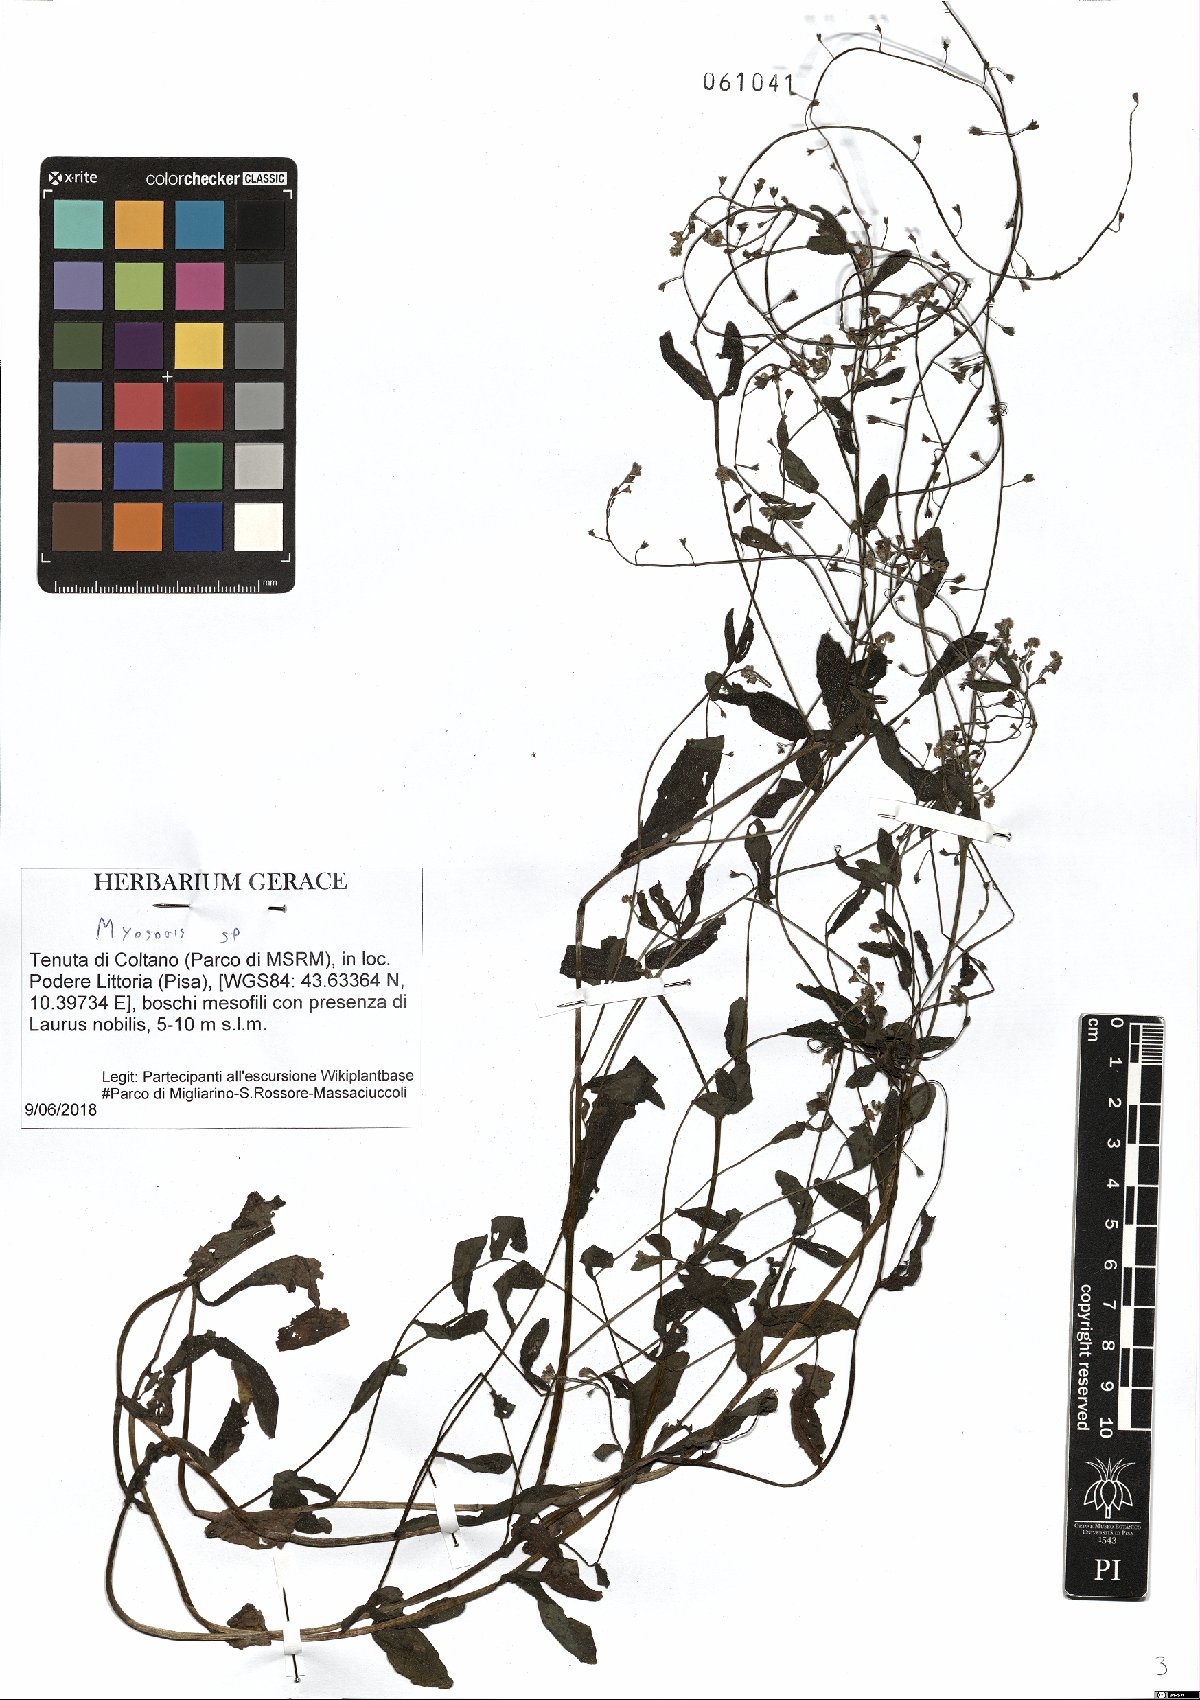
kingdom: Plantae
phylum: Tracheophyta
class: Magnoliopsida
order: Boraginales
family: Boraginaceae
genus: Myosotis
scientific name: Myosotis
